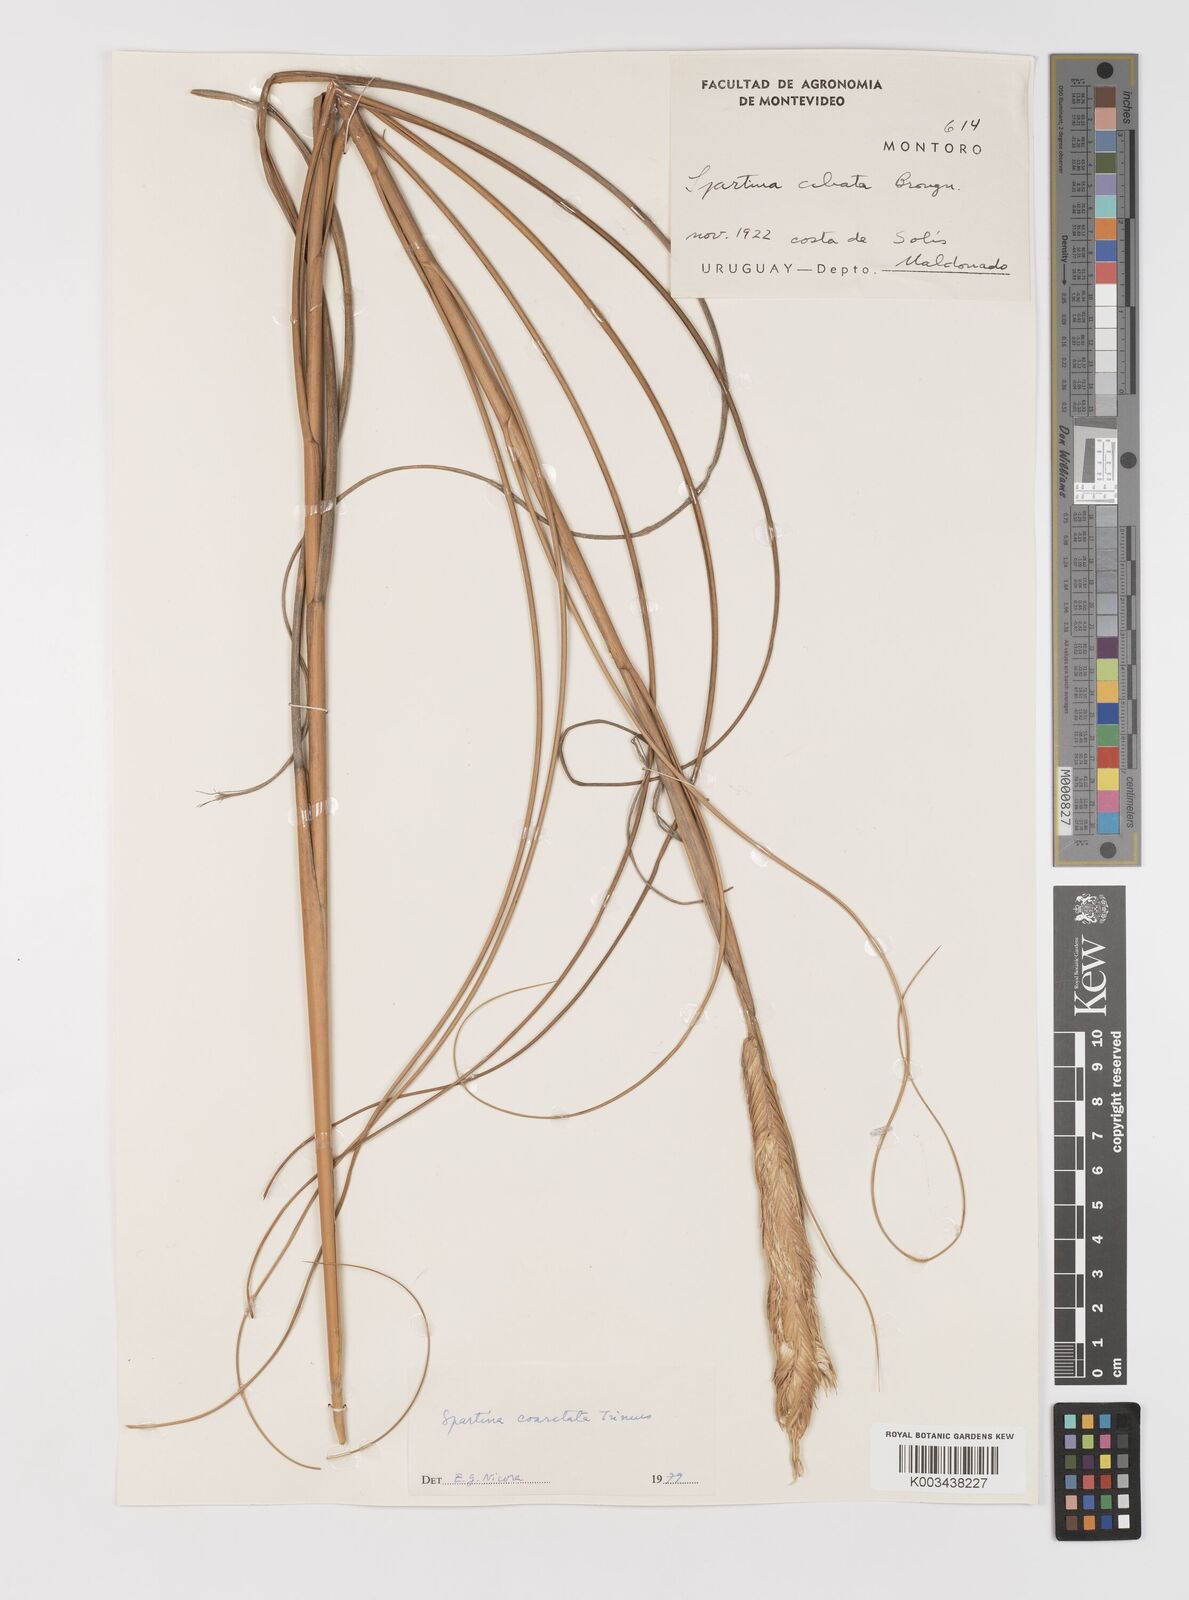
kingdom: Plantae
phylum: Tracheophyta
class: Liliopsida
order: Poales
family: Poaceae
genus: Sporobolus
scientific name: Sporobolus coarctatus
